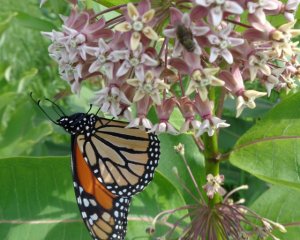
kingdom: Animalia
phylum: Arthropoda
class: Insecta
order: Lepidoptera
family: Nymphalidae
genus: Danaus
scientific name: Danaus plexippus
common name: Monarch
